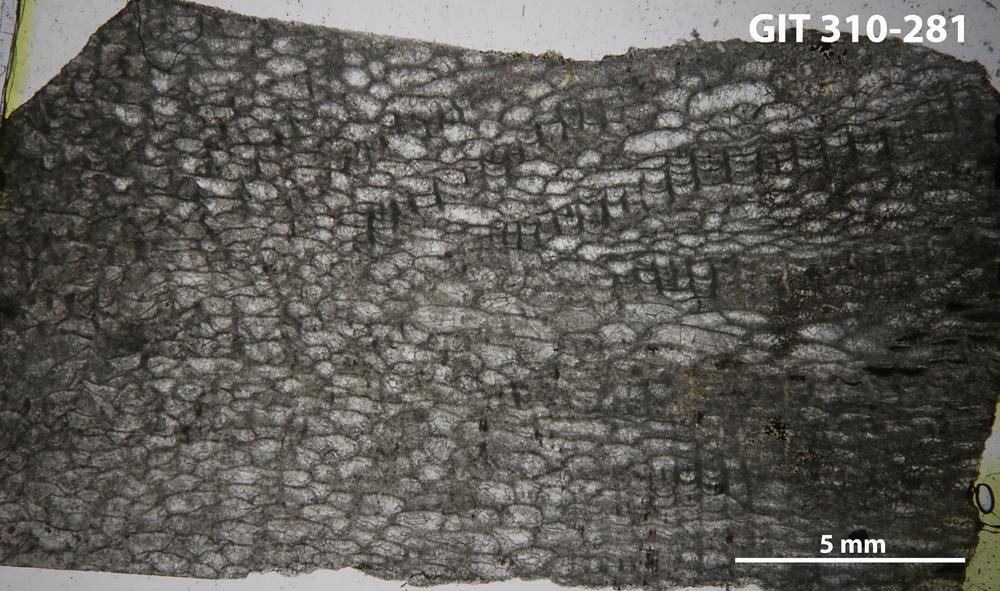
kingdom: Animalia
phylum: Porifera
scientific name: Porifera
